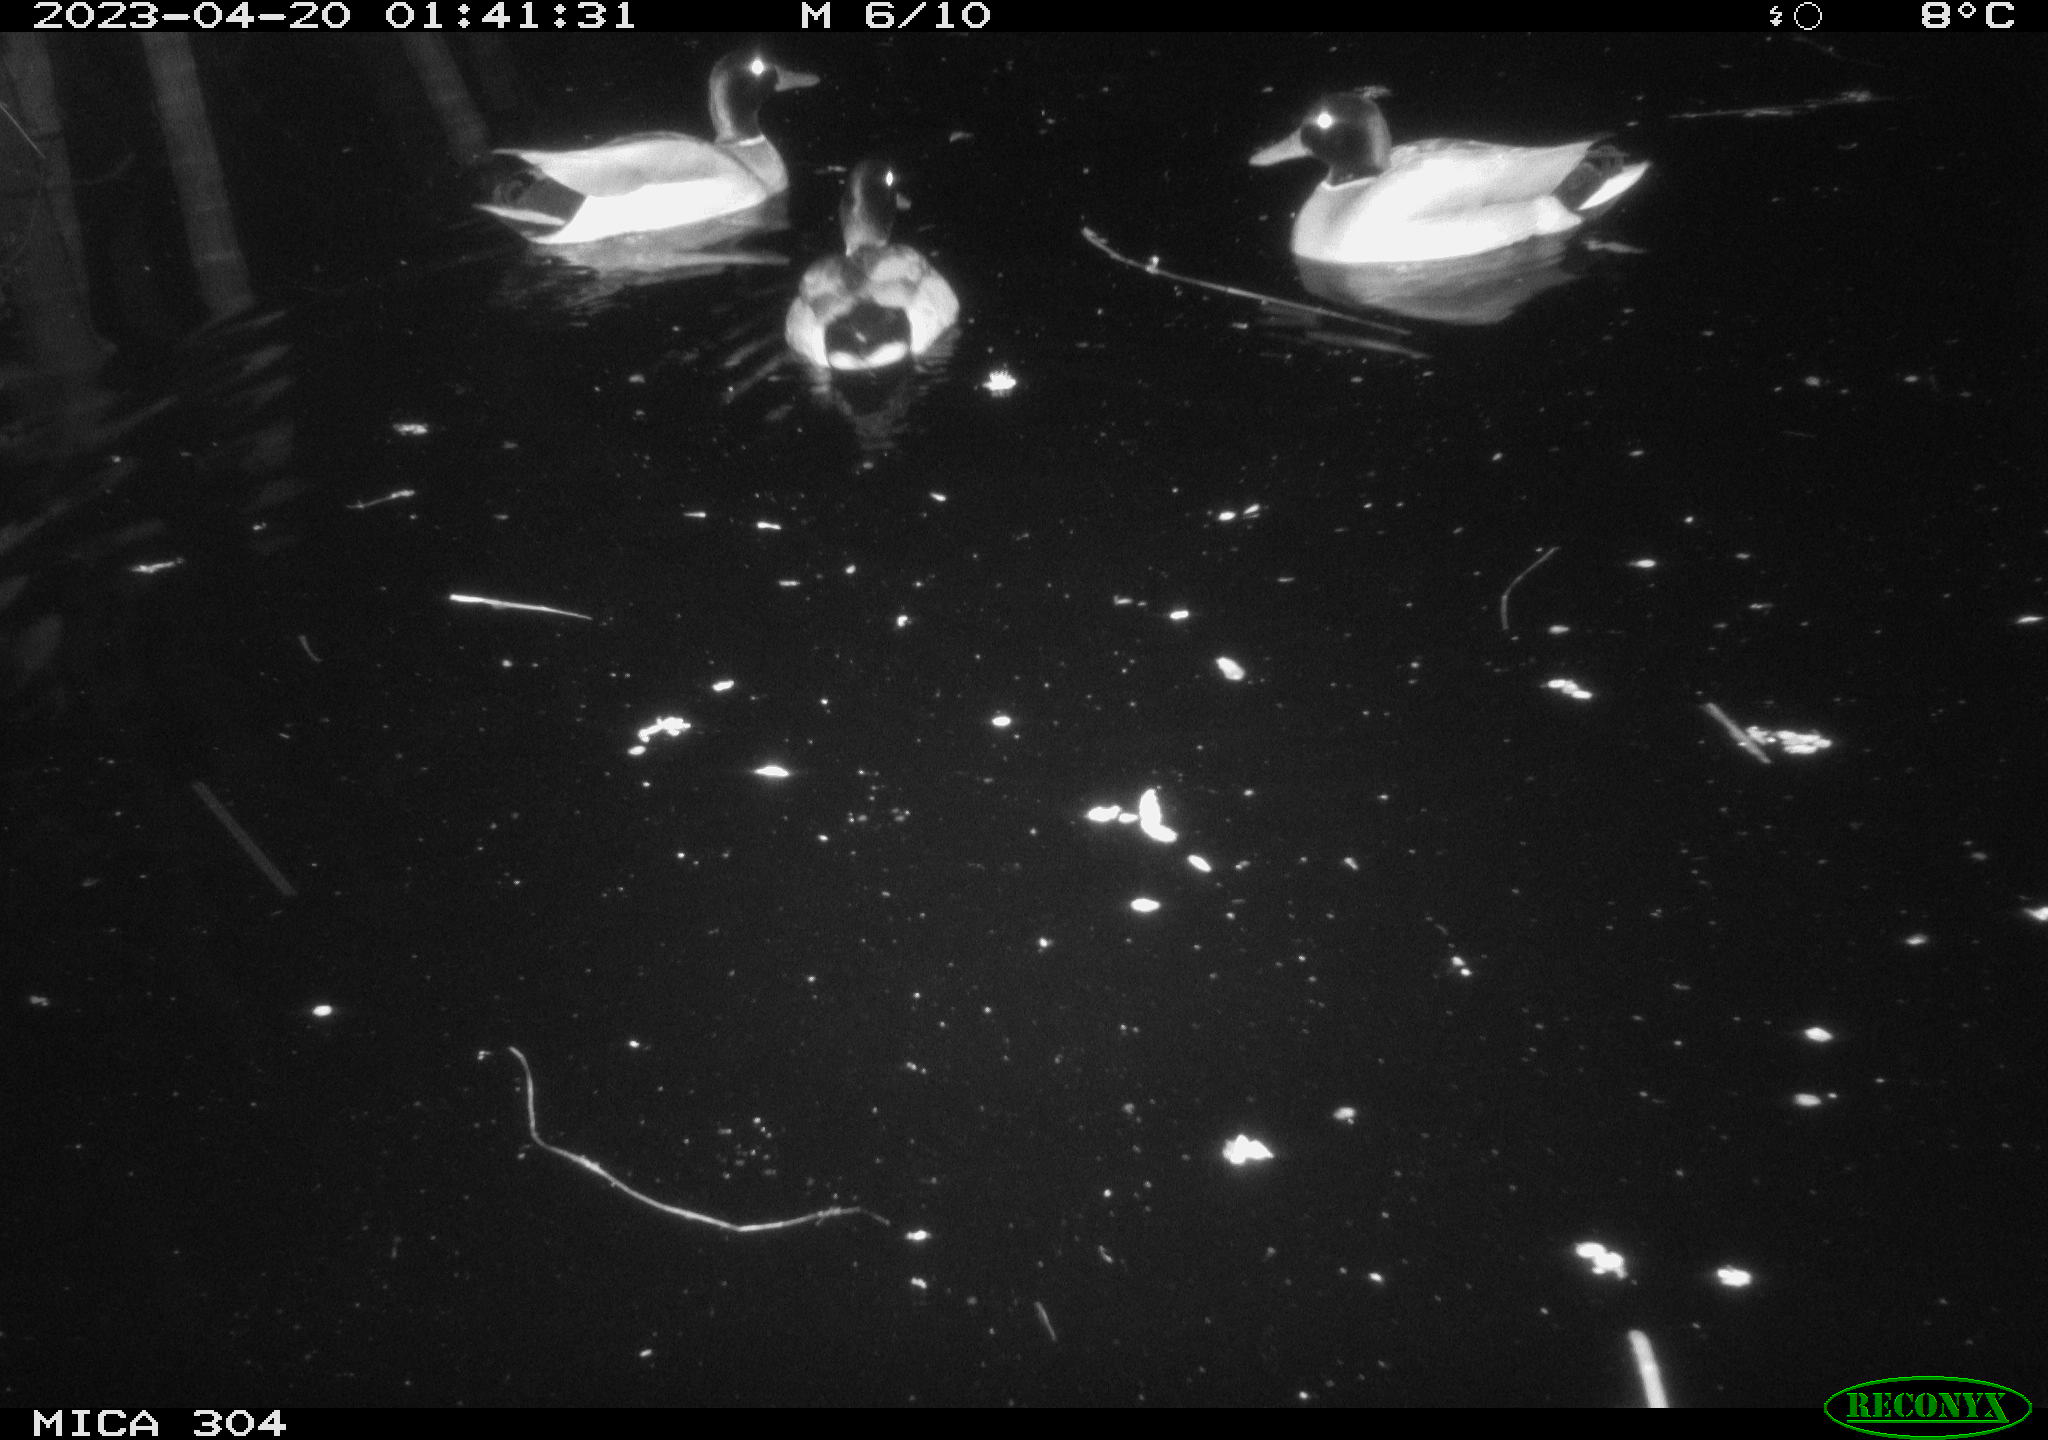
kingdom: Animalia
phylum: Chordata
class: Aves
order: Anseriformes
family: Anatidae
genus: Anas
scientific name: Anas
